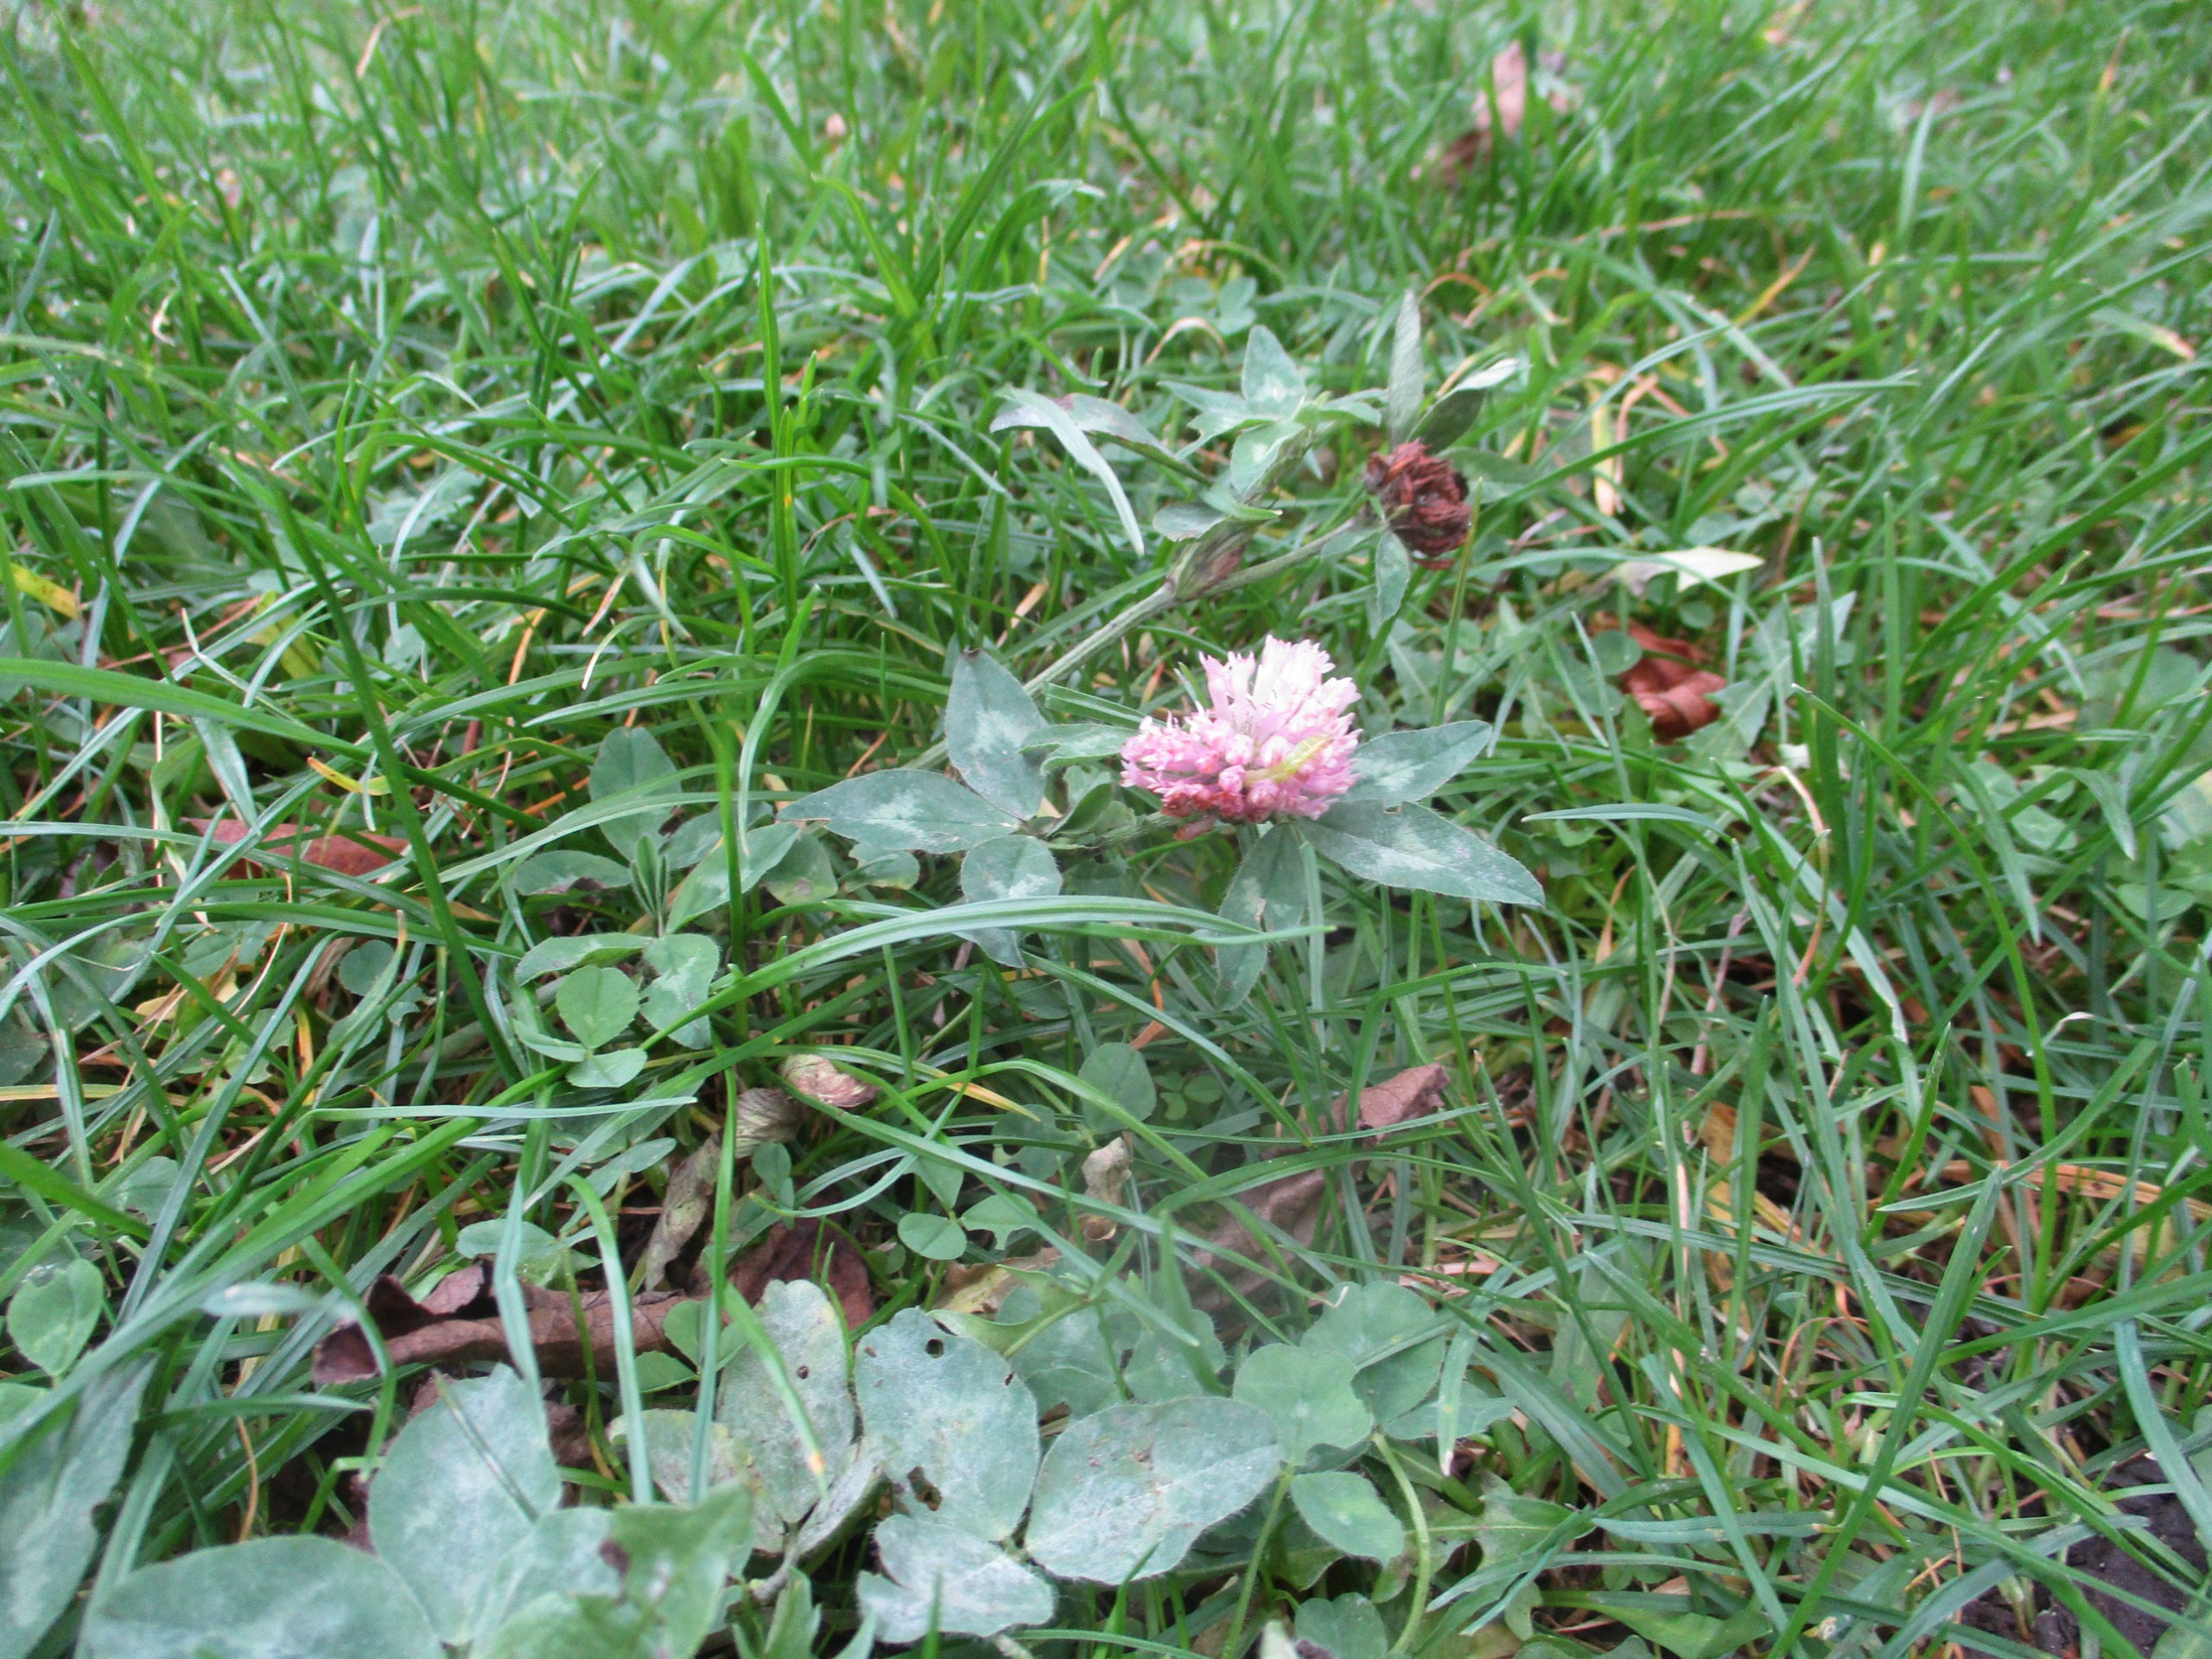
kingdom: Plantae
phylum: Tracheophyta
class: Magnoliopsida
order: Fabales
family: Fabaceae
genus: Trifolium
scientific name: Trifolium pratense
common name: Rød-kløver
